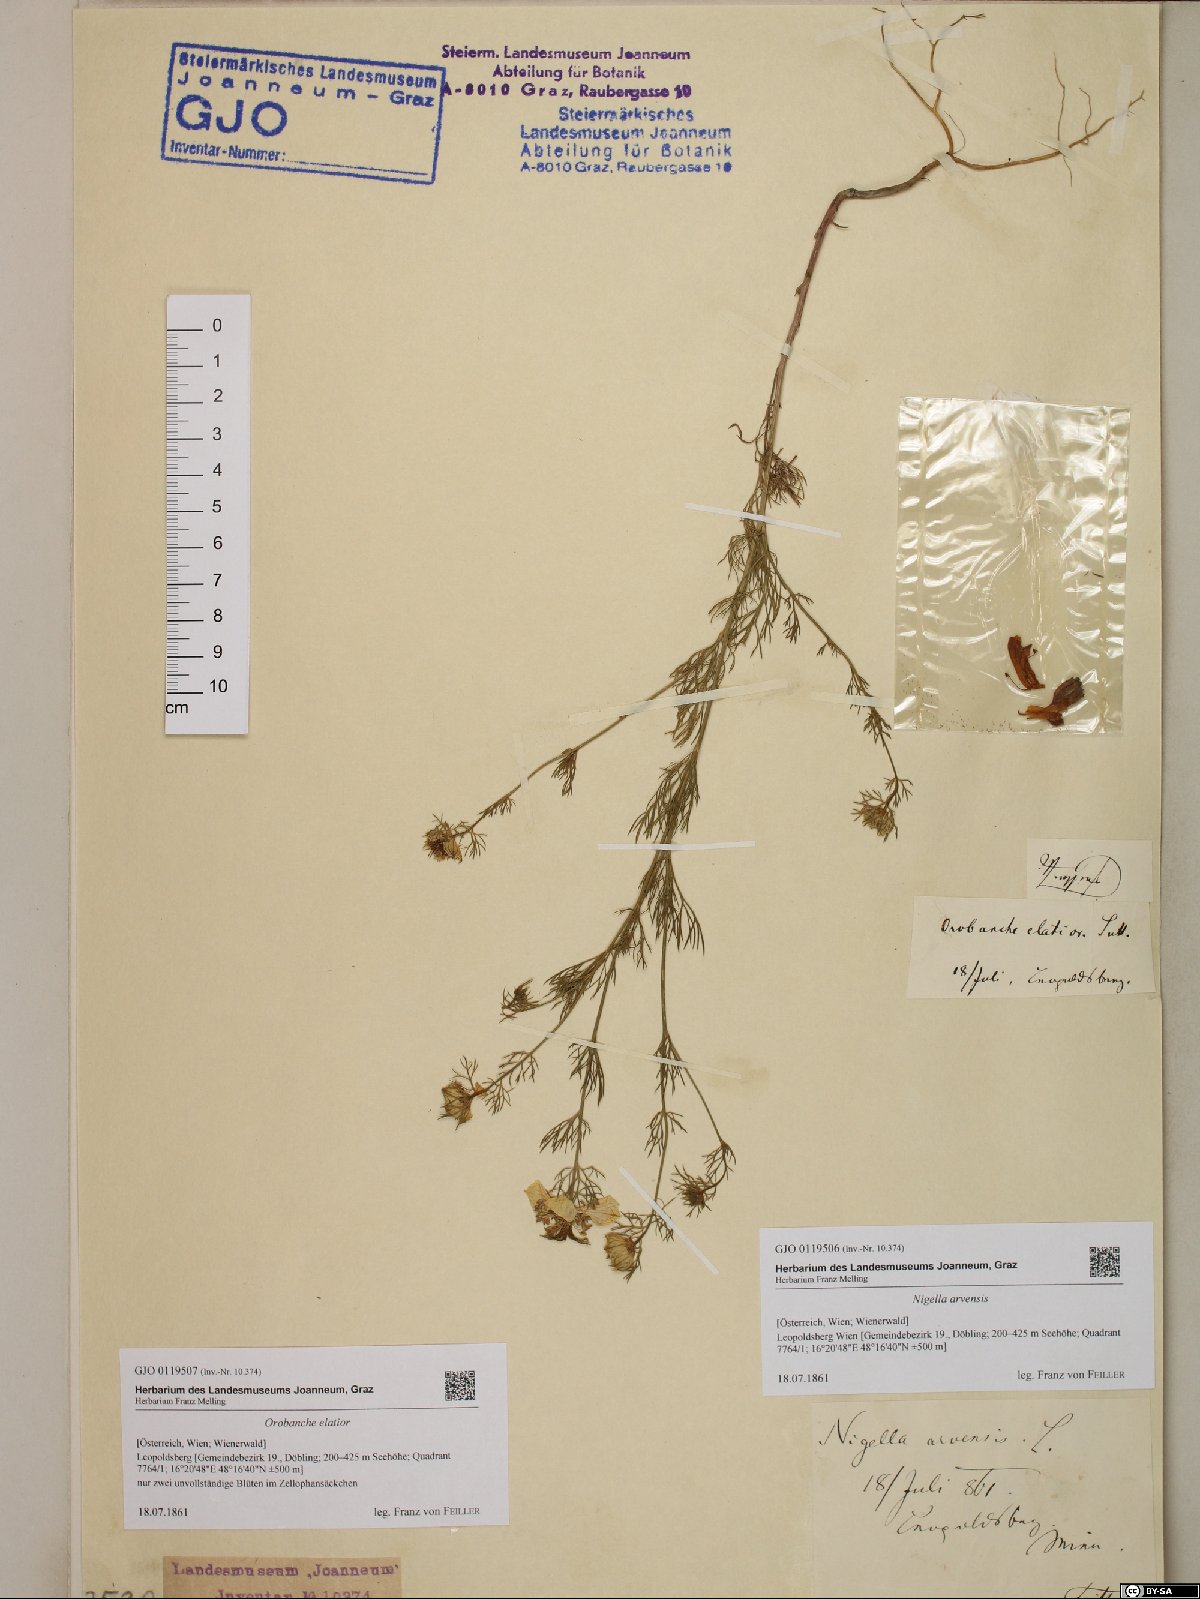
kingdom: Plantae
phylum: Tracheophyta
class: Magnoliopsida
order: Lamiales
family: Orobanchaceae
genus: Orobanche
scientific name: Orobanche elatior
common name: Knapweed broomrape
